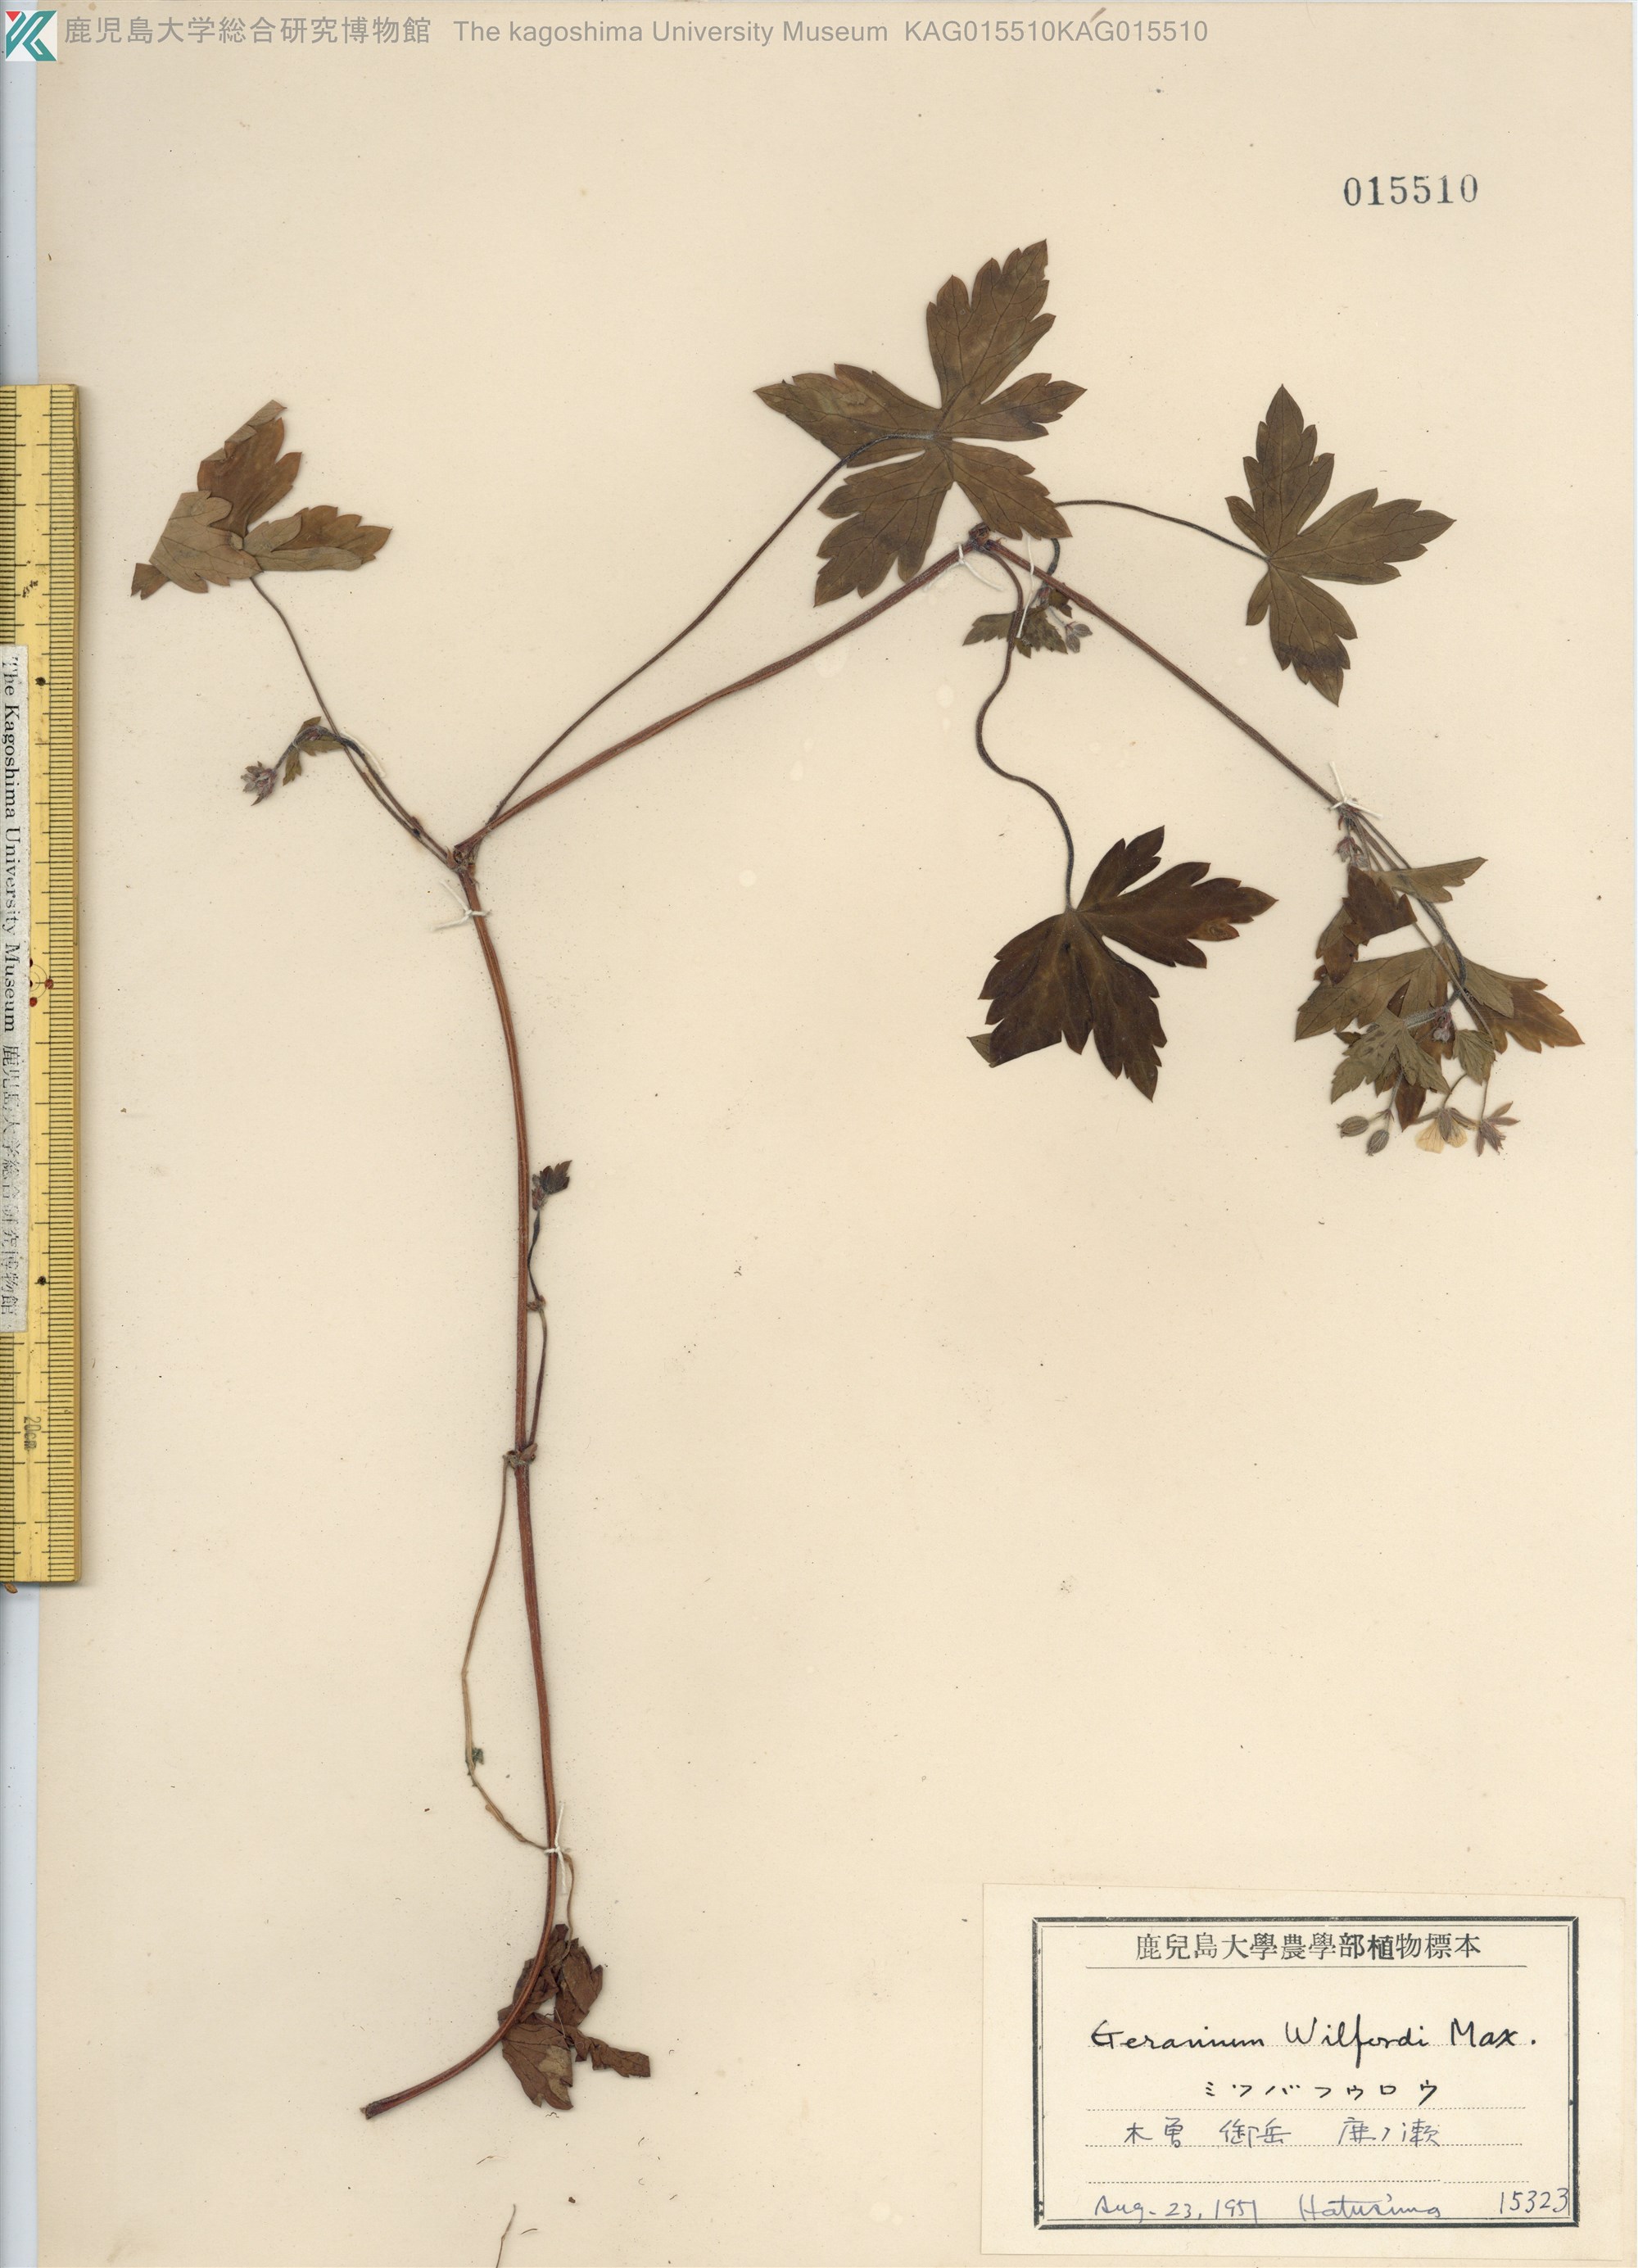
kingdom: Plantae
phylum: Tracheophyta
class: Magnoliopsida
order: Geraniales
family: Geraniaceae
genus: Geranium
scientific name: Geranium tripartitum
